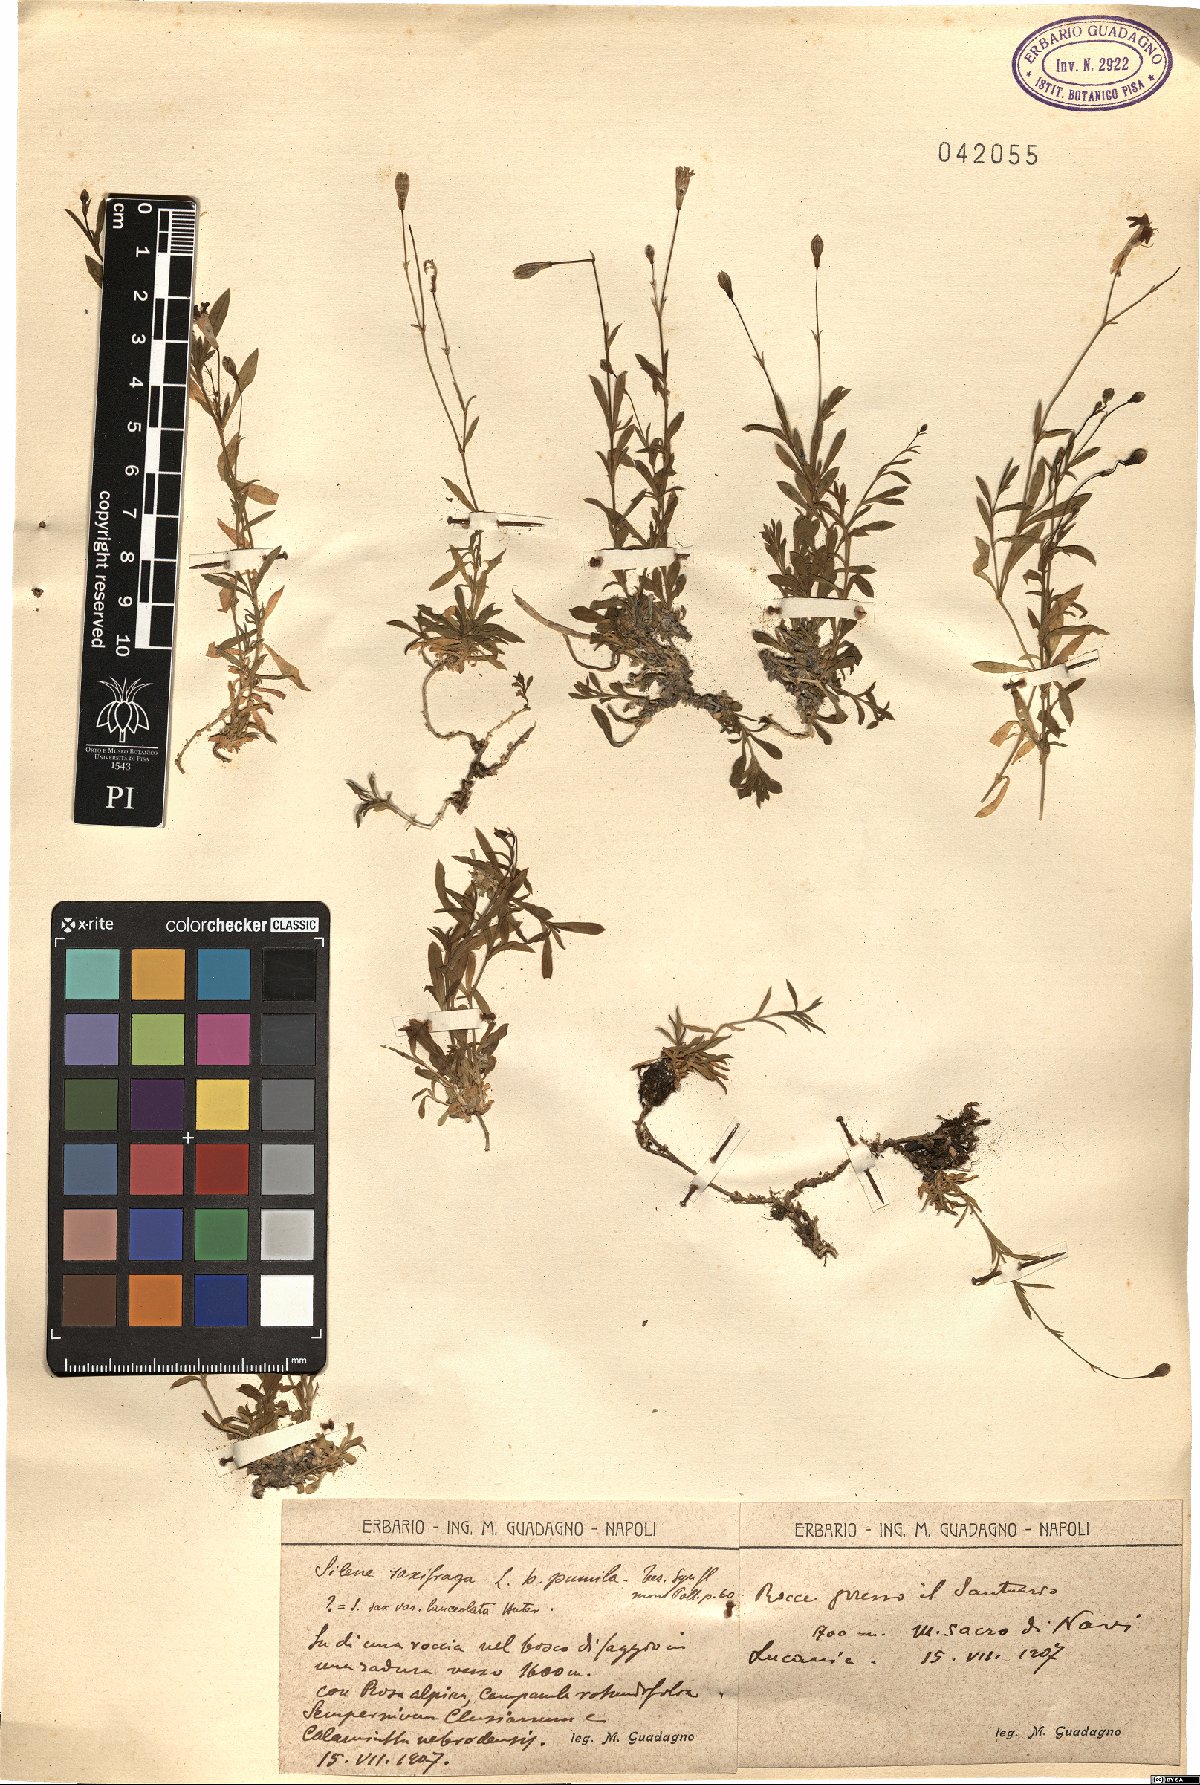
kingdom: Plantae
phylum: Tracheophyta
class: Magnoliopsida
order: Caryophyllales
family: Caryophyllaceae
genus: Silene
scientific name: Silene saxifraga
